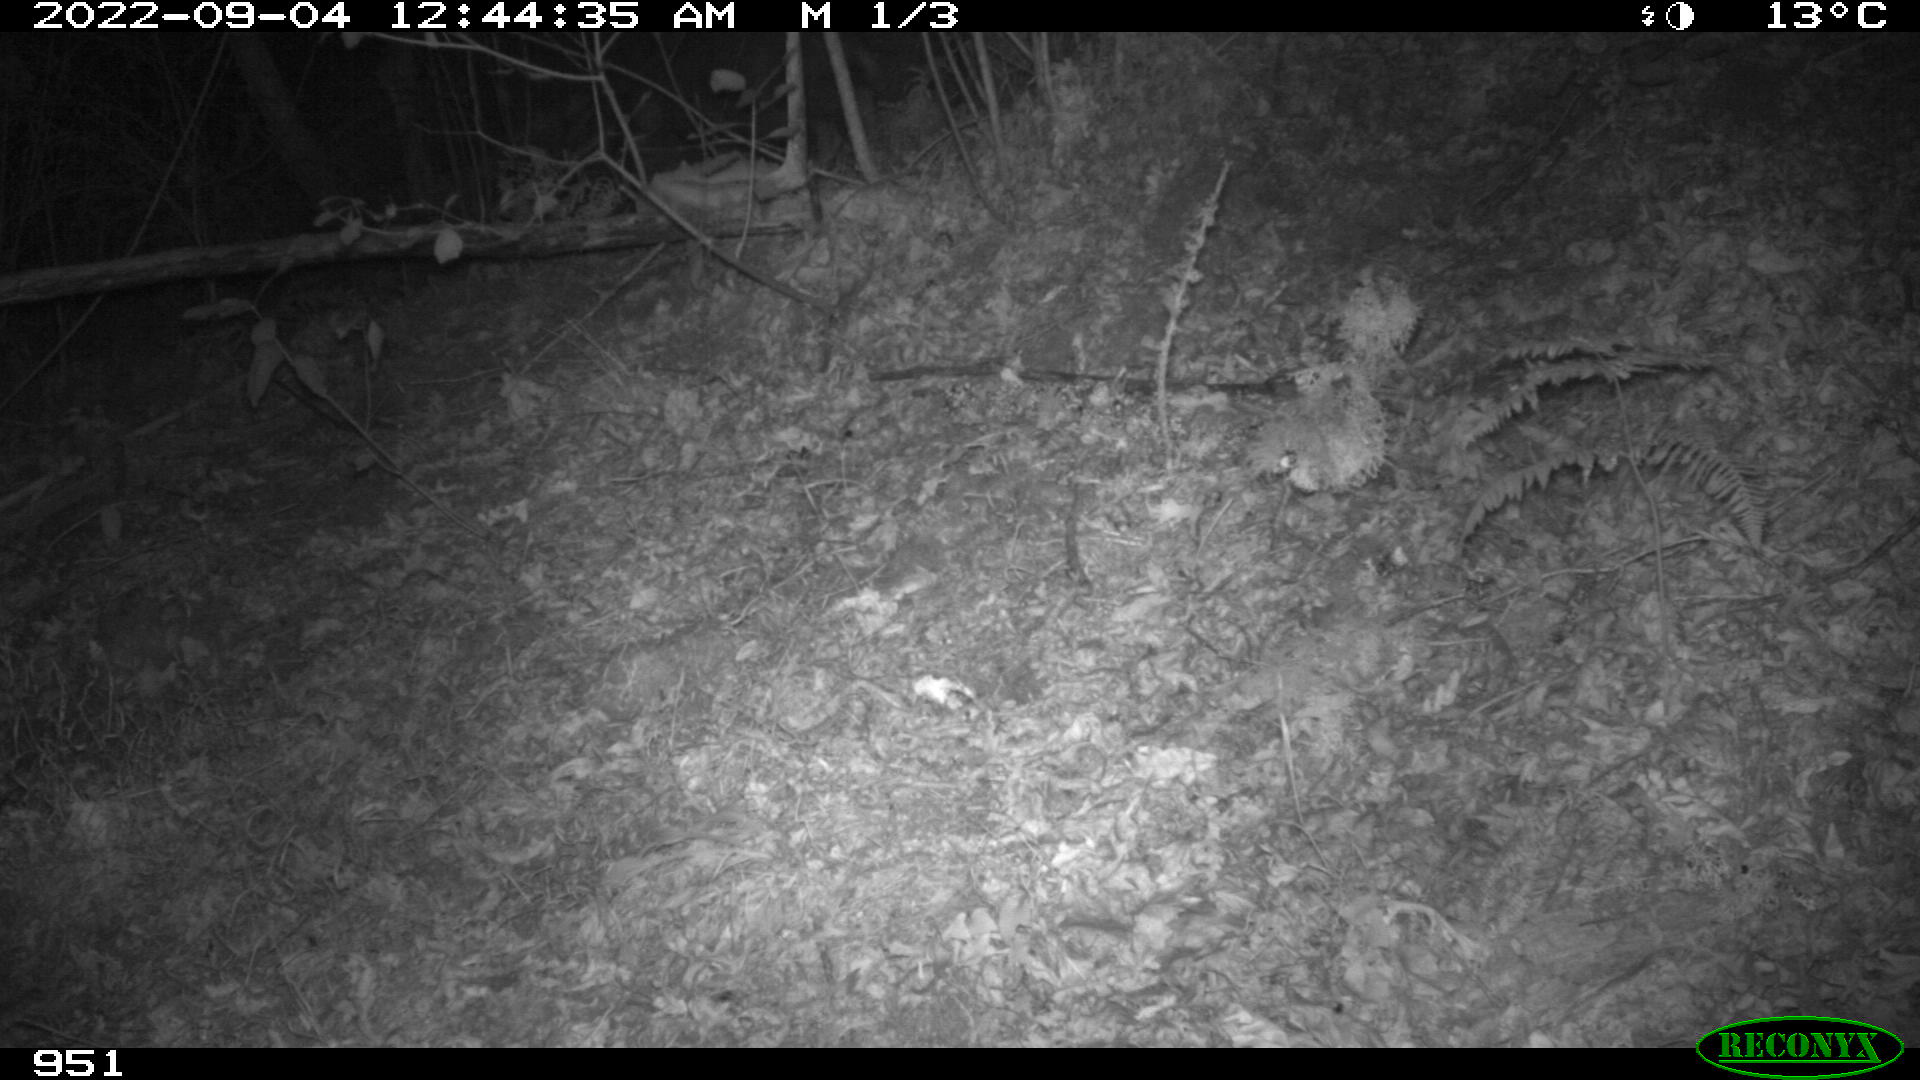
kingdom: Animalia
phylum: Chordata
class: Mammalia
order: Artiodactyla
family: Suidae
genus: Sus
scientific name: Sus scrofa
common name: Wild boar
